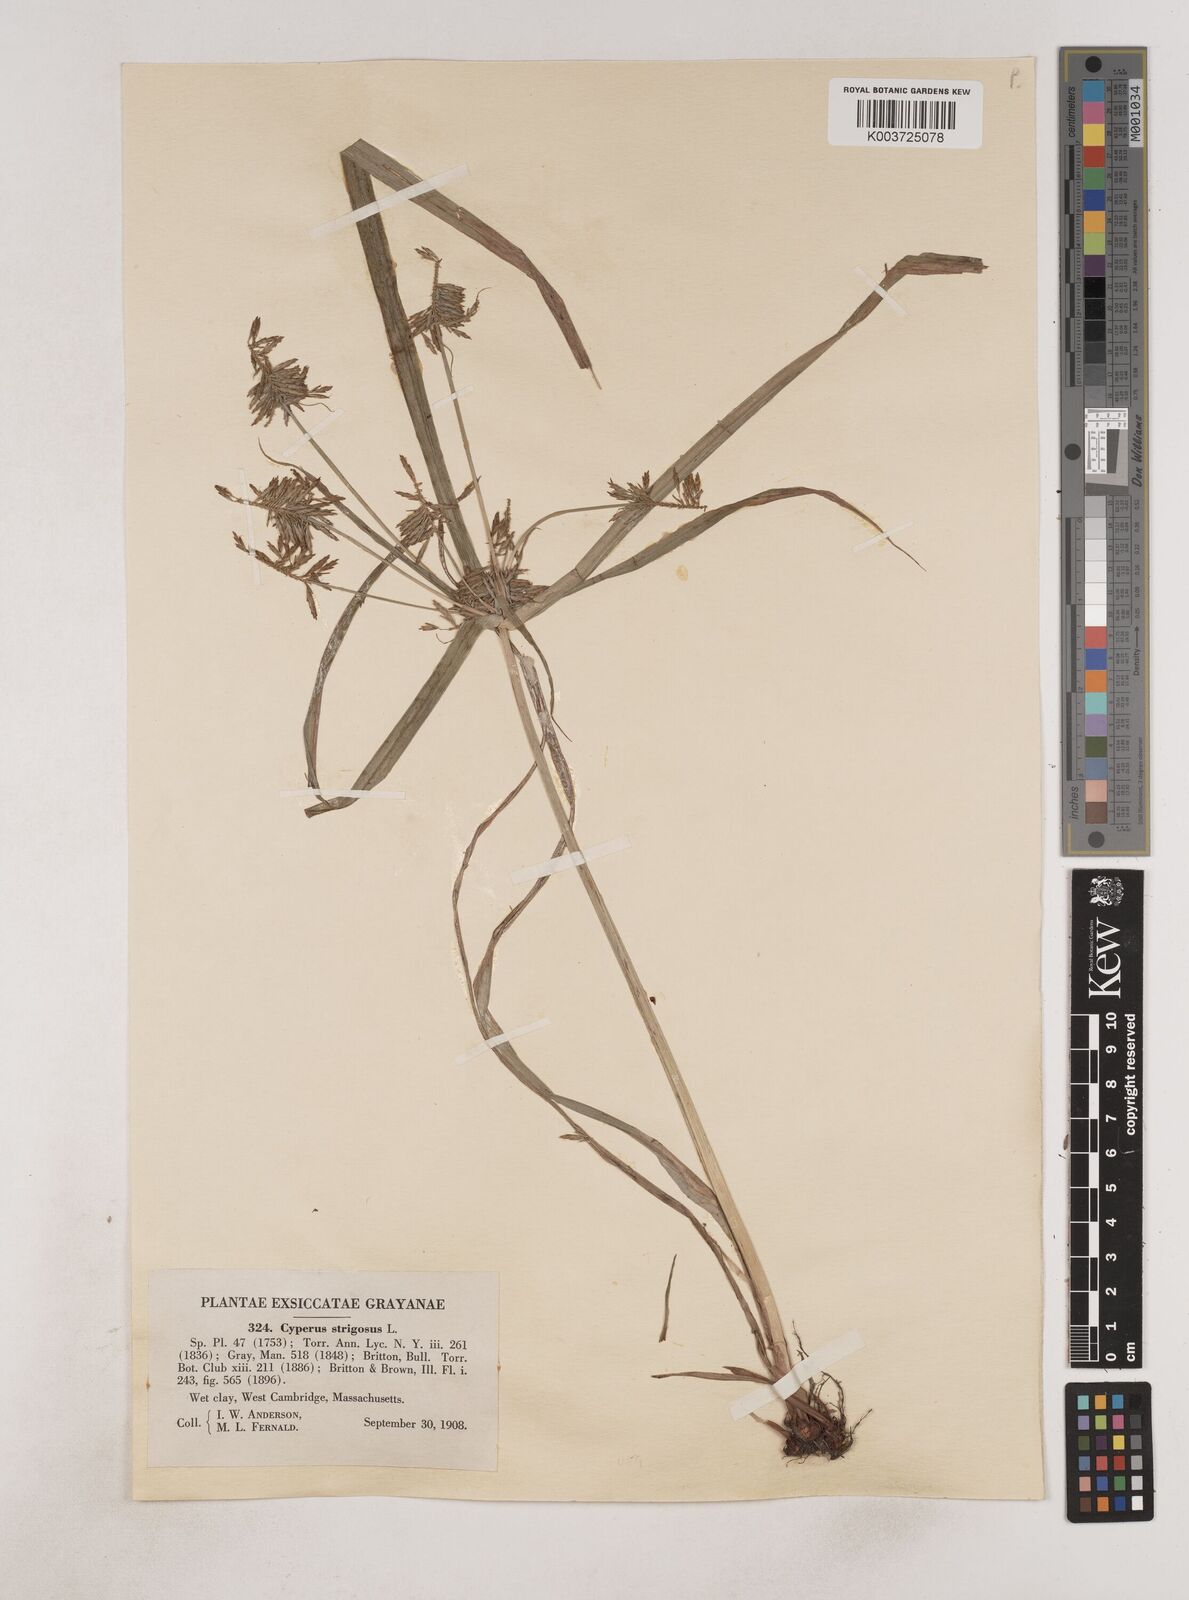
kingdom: Plantae
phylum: Tracheophyta
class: Liliopsida
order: Poales
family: Cyperaceae
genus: Cyperus
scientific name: Cyperus strigosus
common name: False nutsedge
